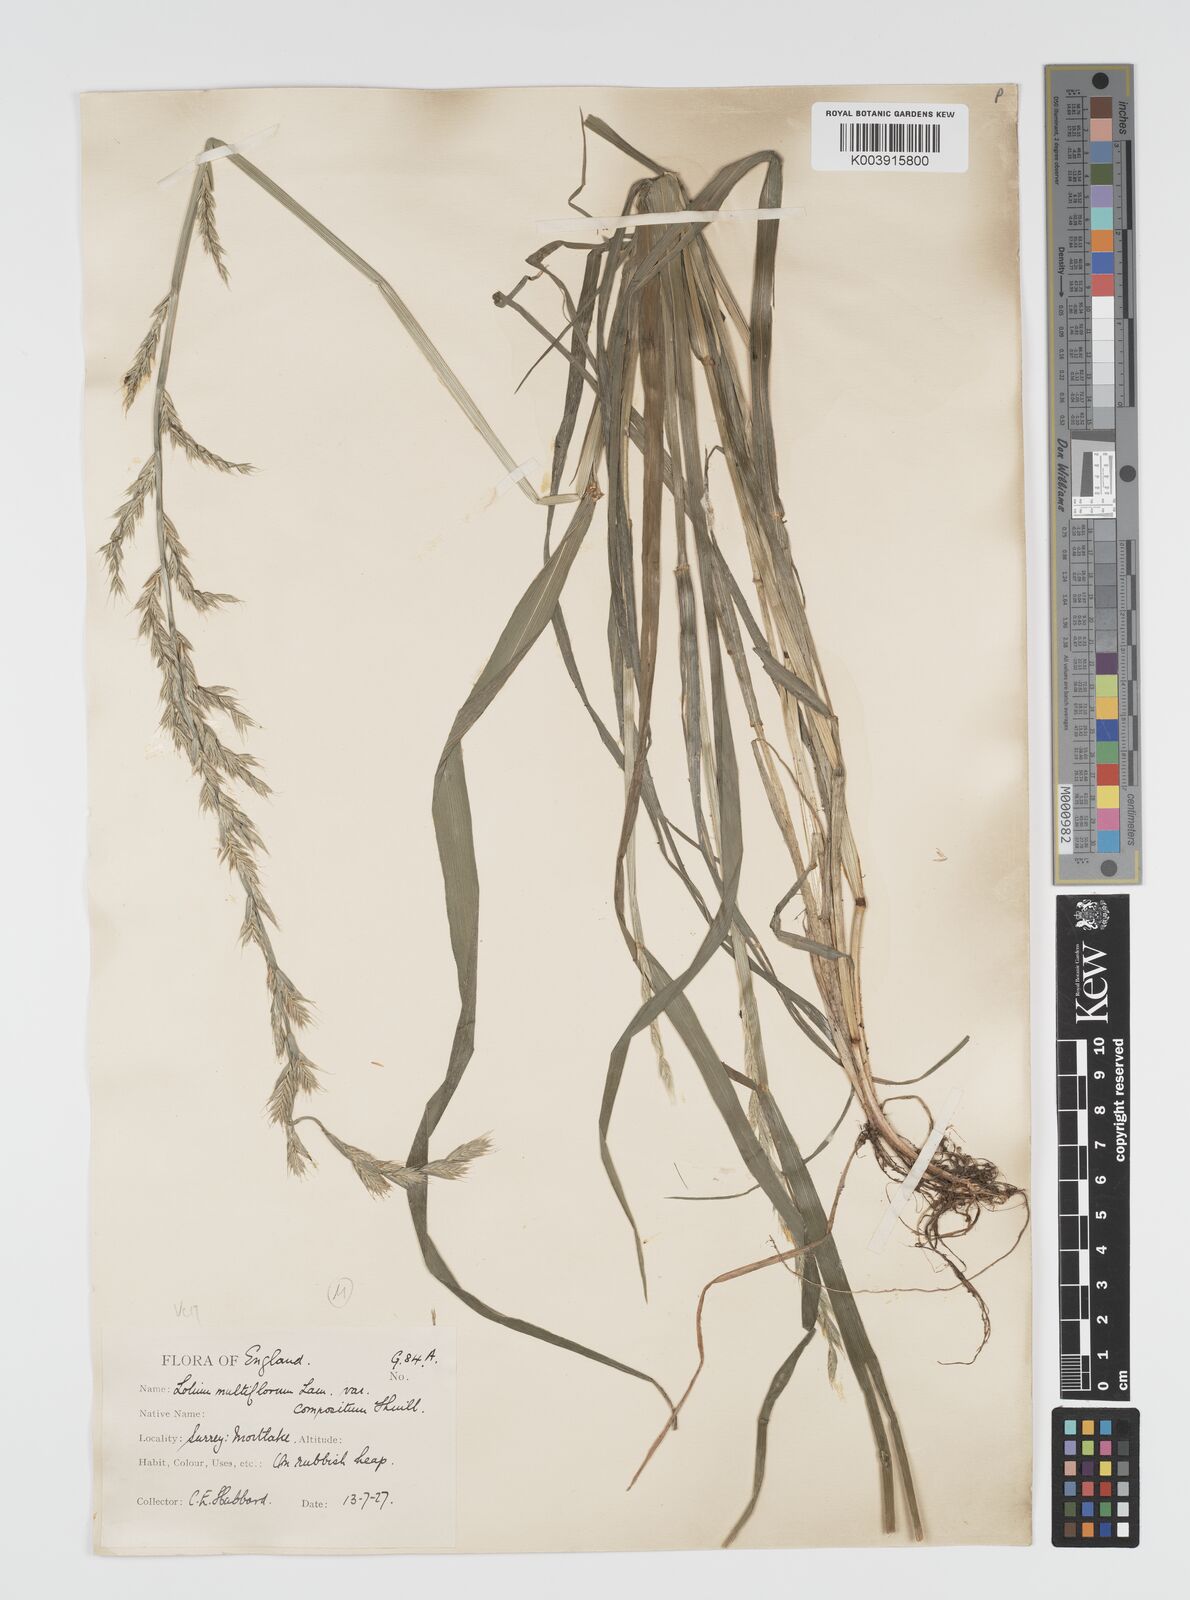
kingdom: Plantae
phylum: Tracheophyta
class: Liliopsida
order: Poales
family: Poaceae
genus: Lolium
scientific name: Lolium multiflorum
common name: Annual ryegrass
